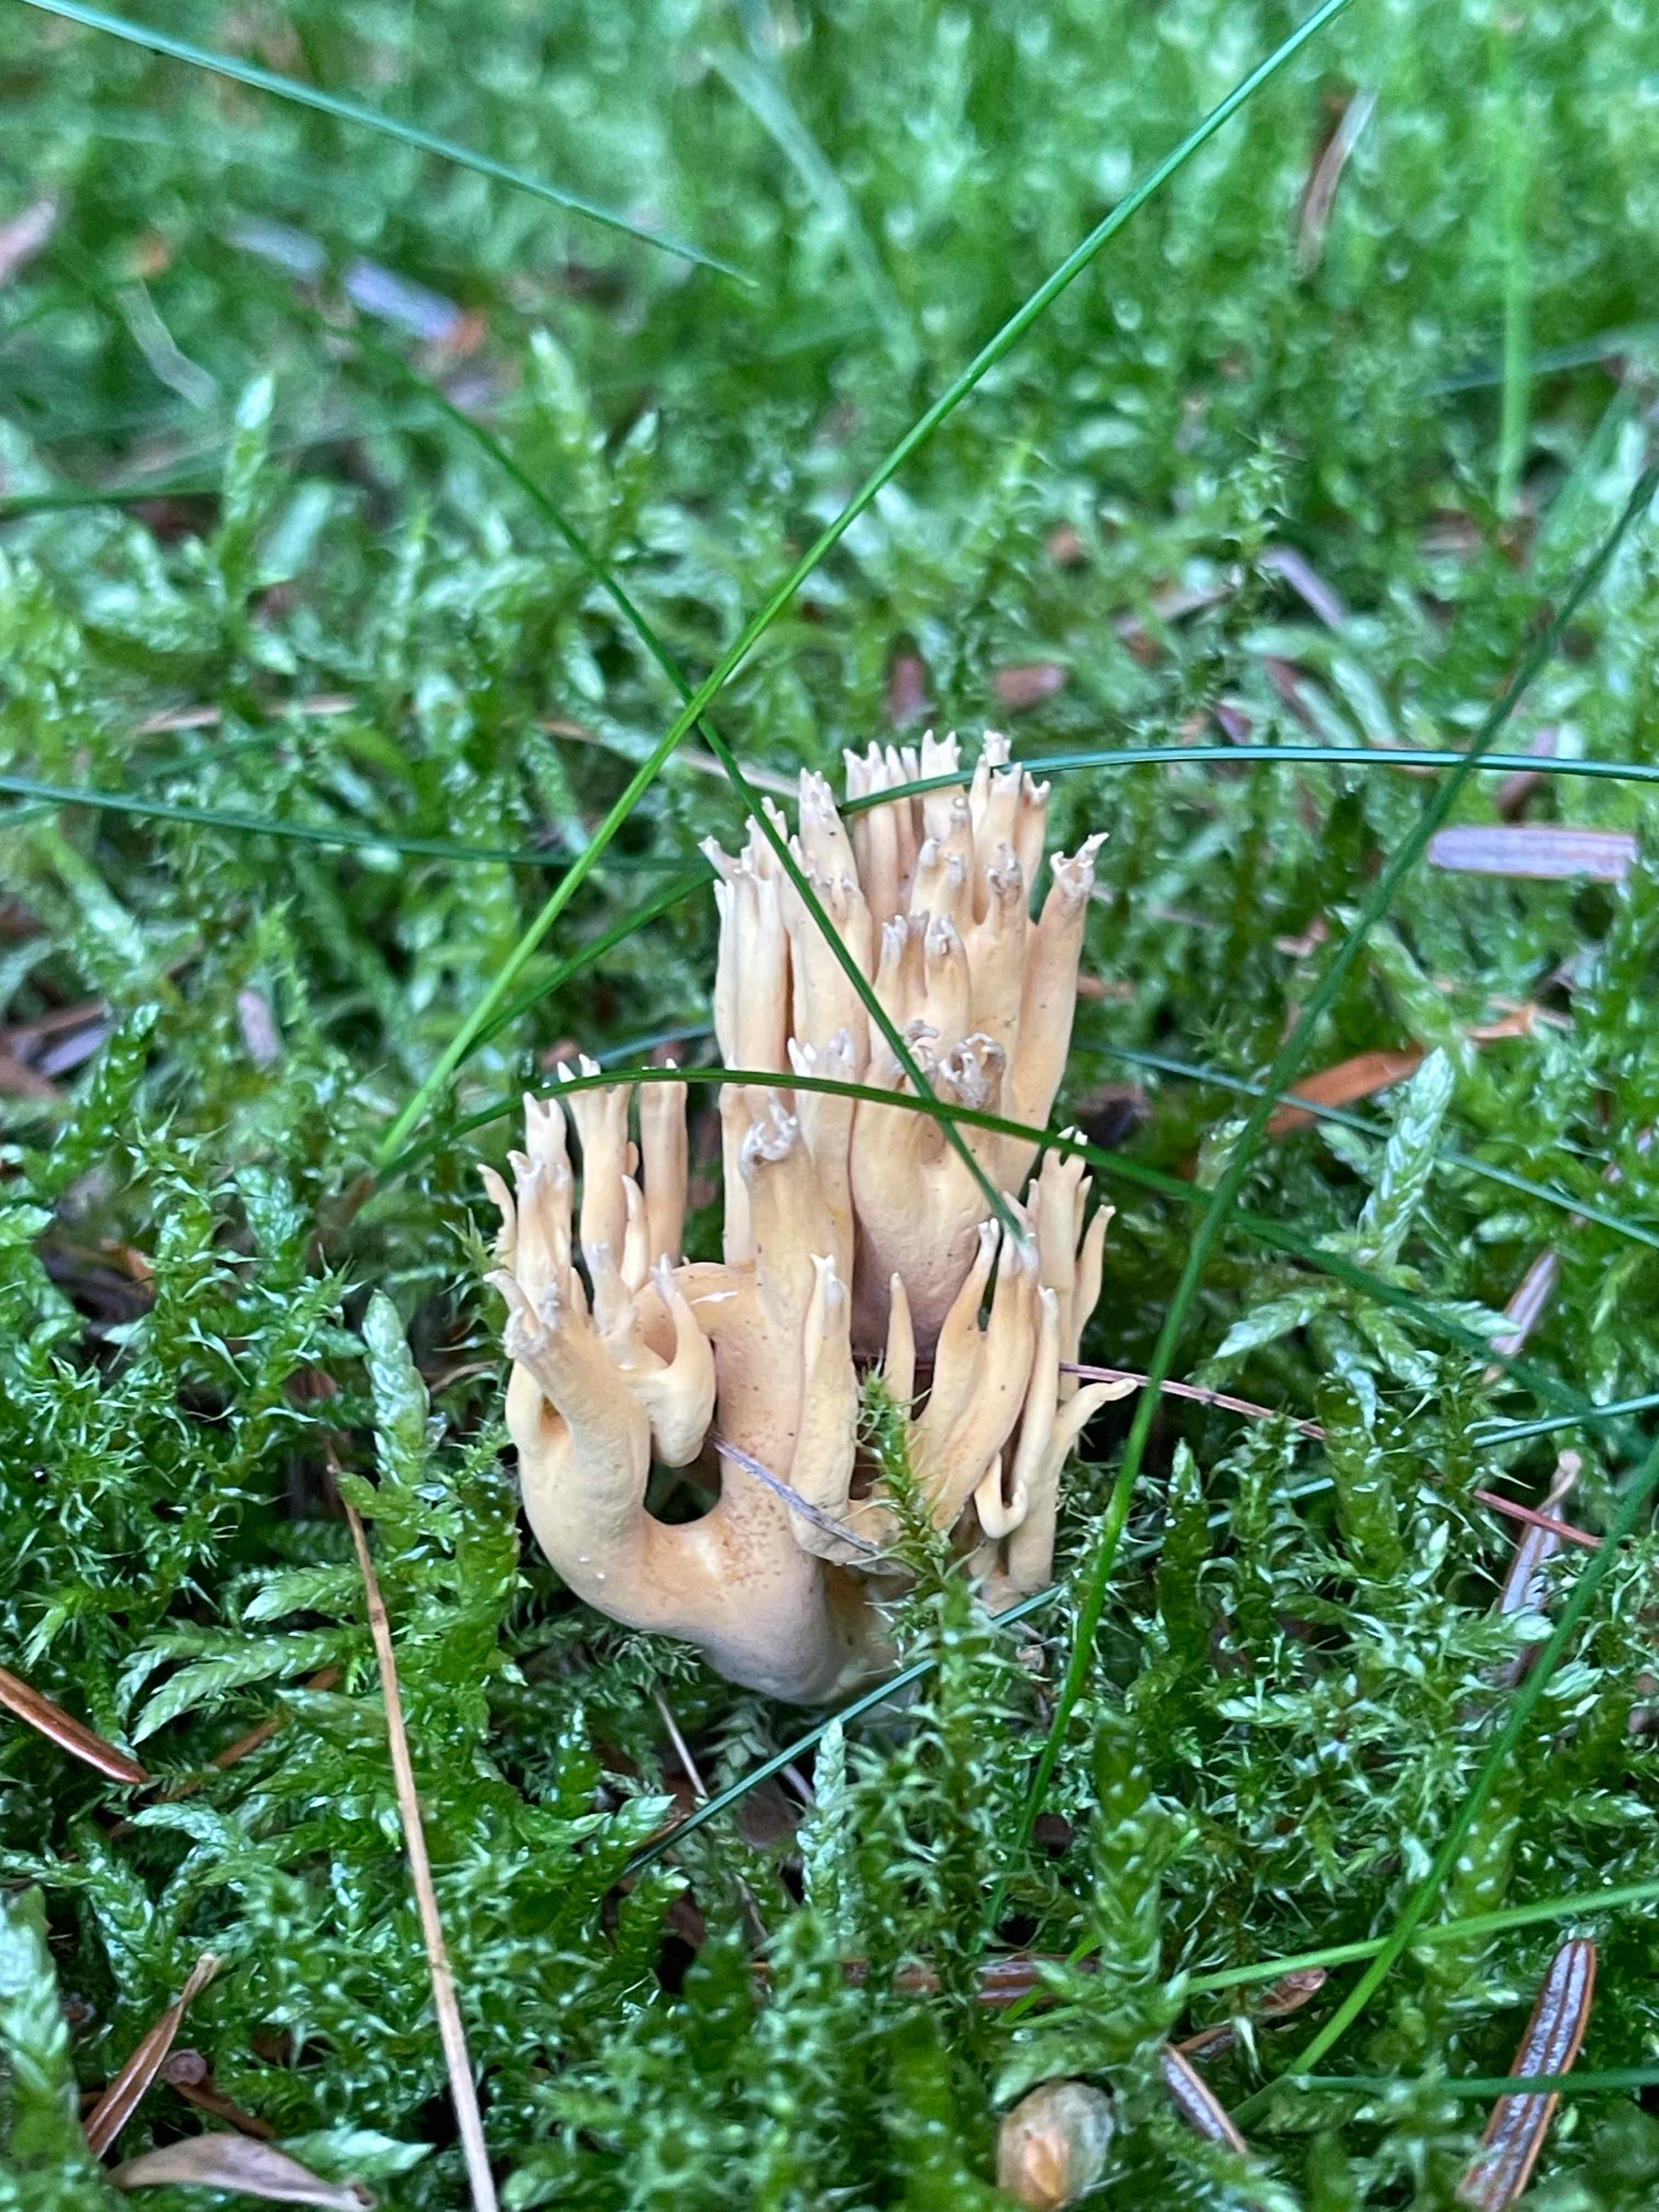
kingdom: Fungi
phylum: Basidiomycota
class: Agaricomycetes
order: Gomphales
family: Gomphaceae
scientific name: Gomphaceae
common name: køllekantarelfamilien
